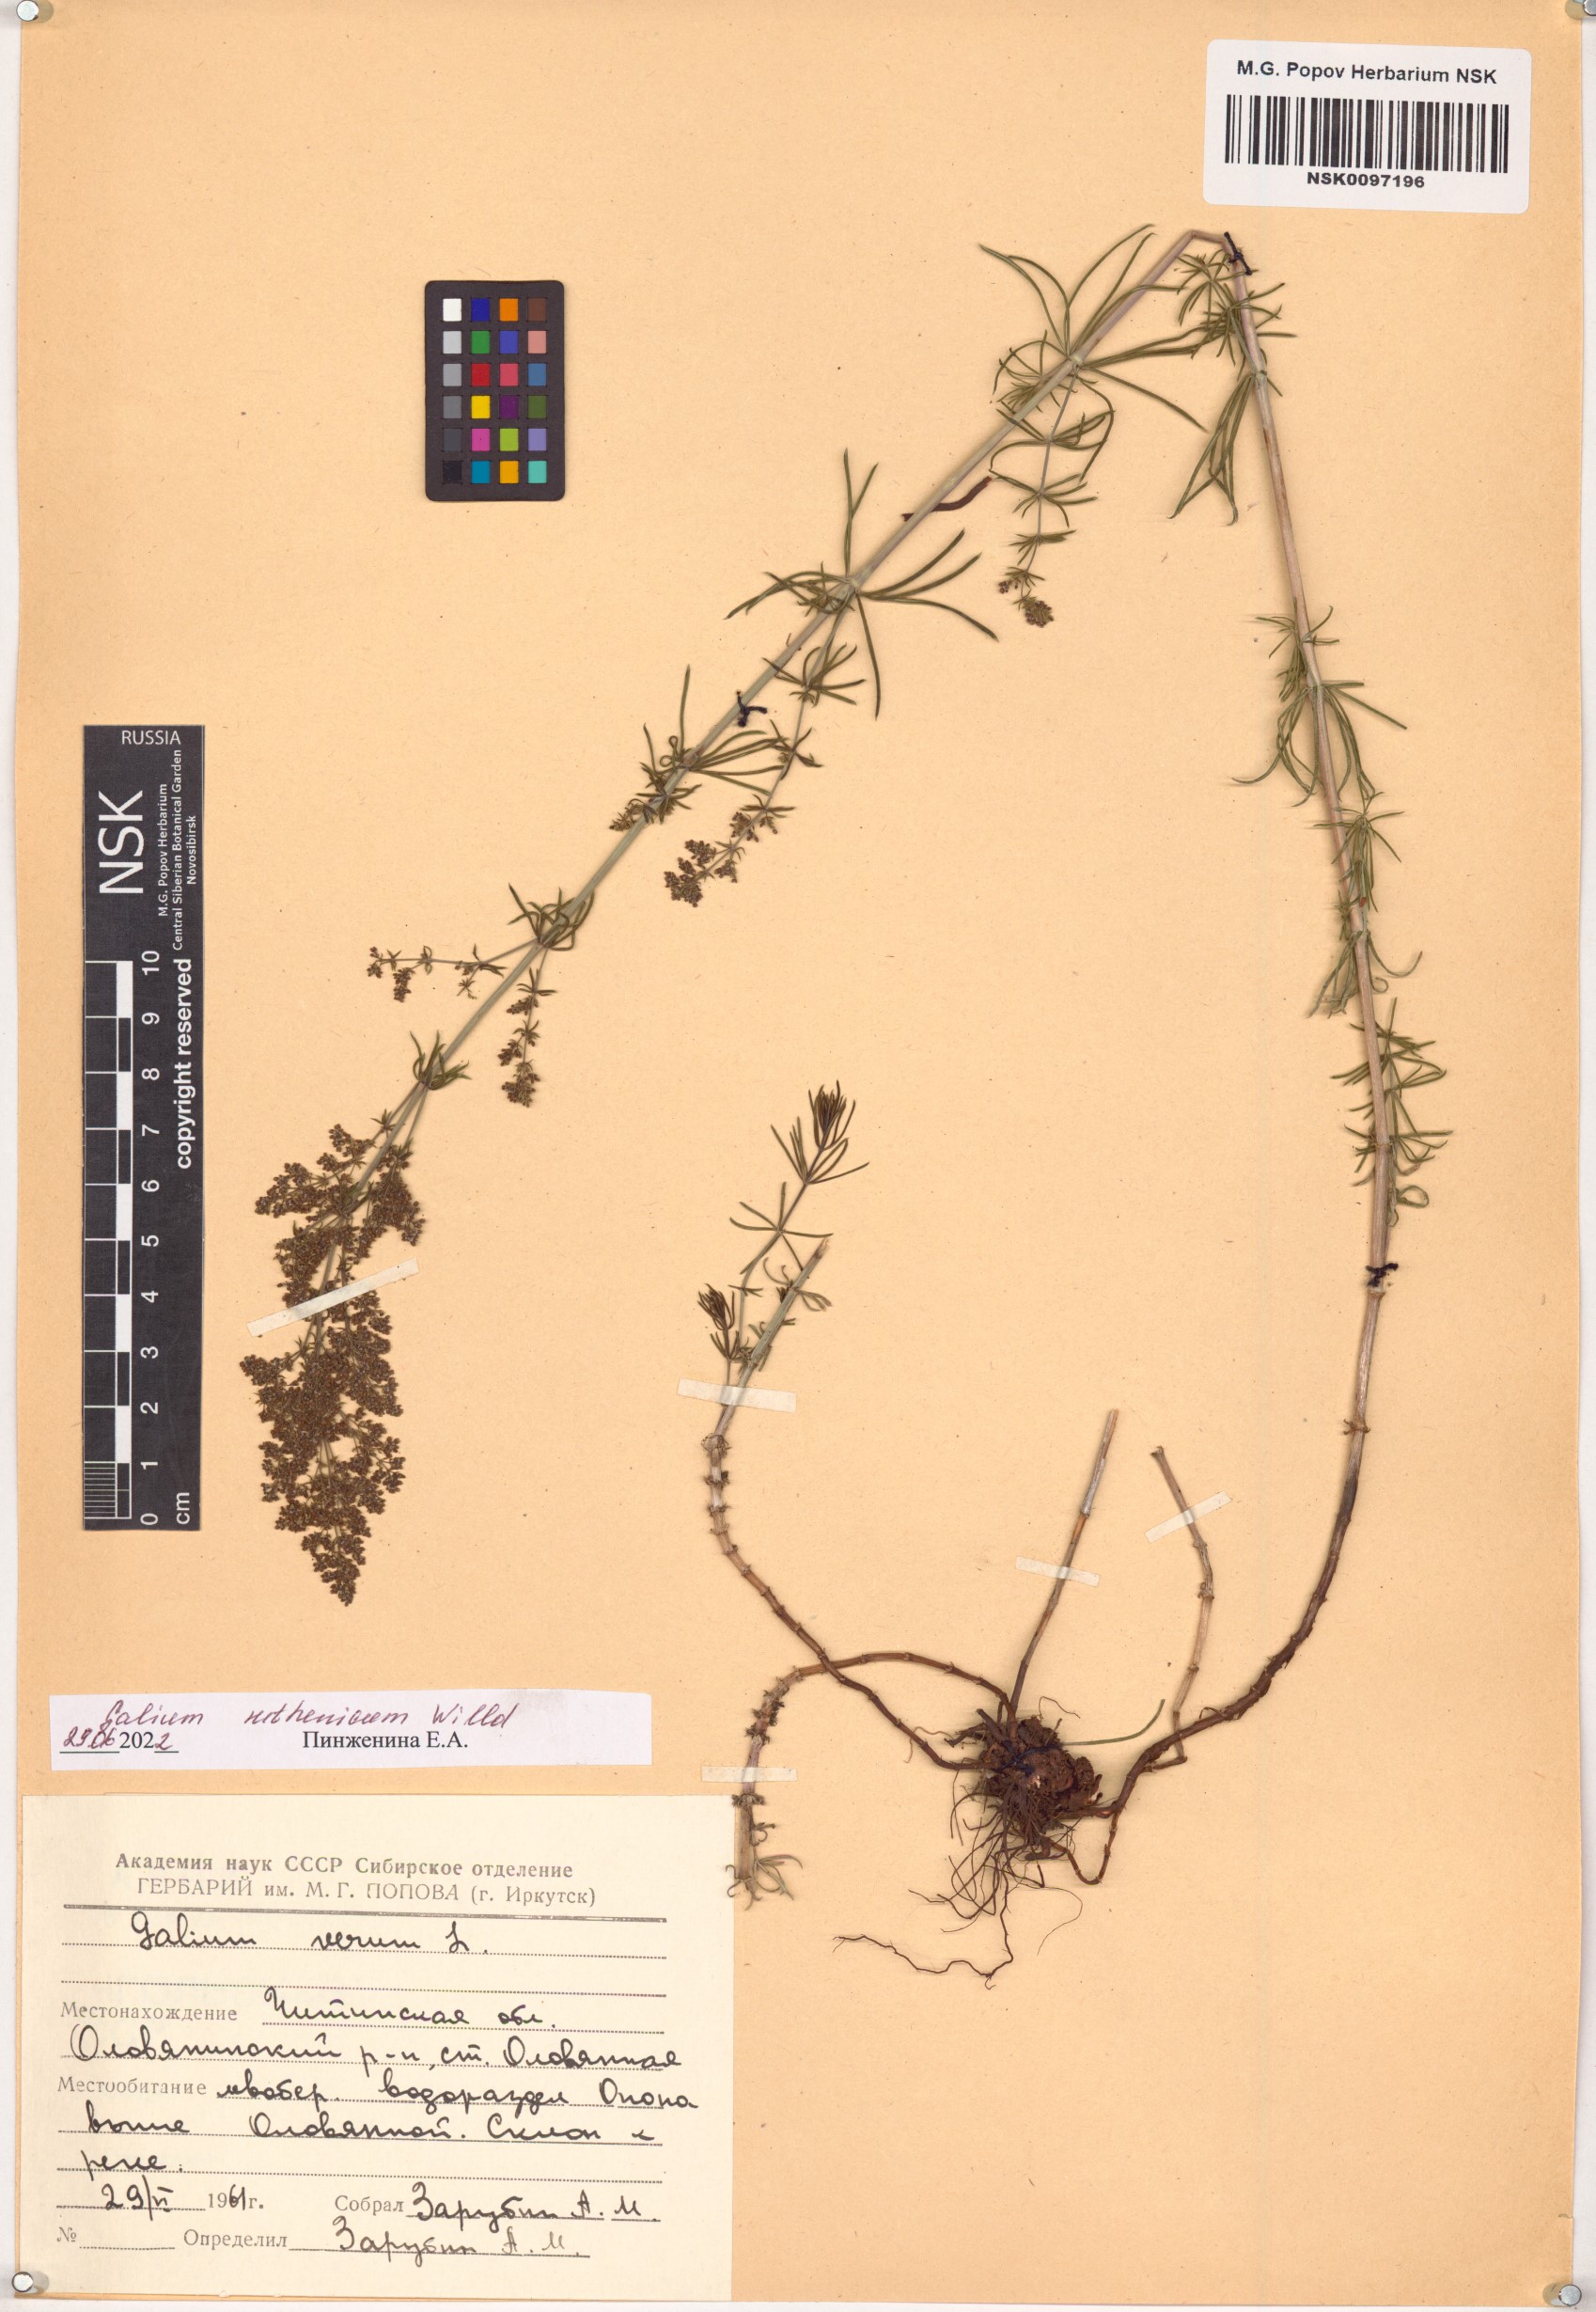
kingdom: Plantae
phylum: Tracheophyta
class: Magnoliopsida
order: Gentianales
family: Rubiaceae
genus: Galium
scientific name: Galium verum
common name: Lady's bedstraw
